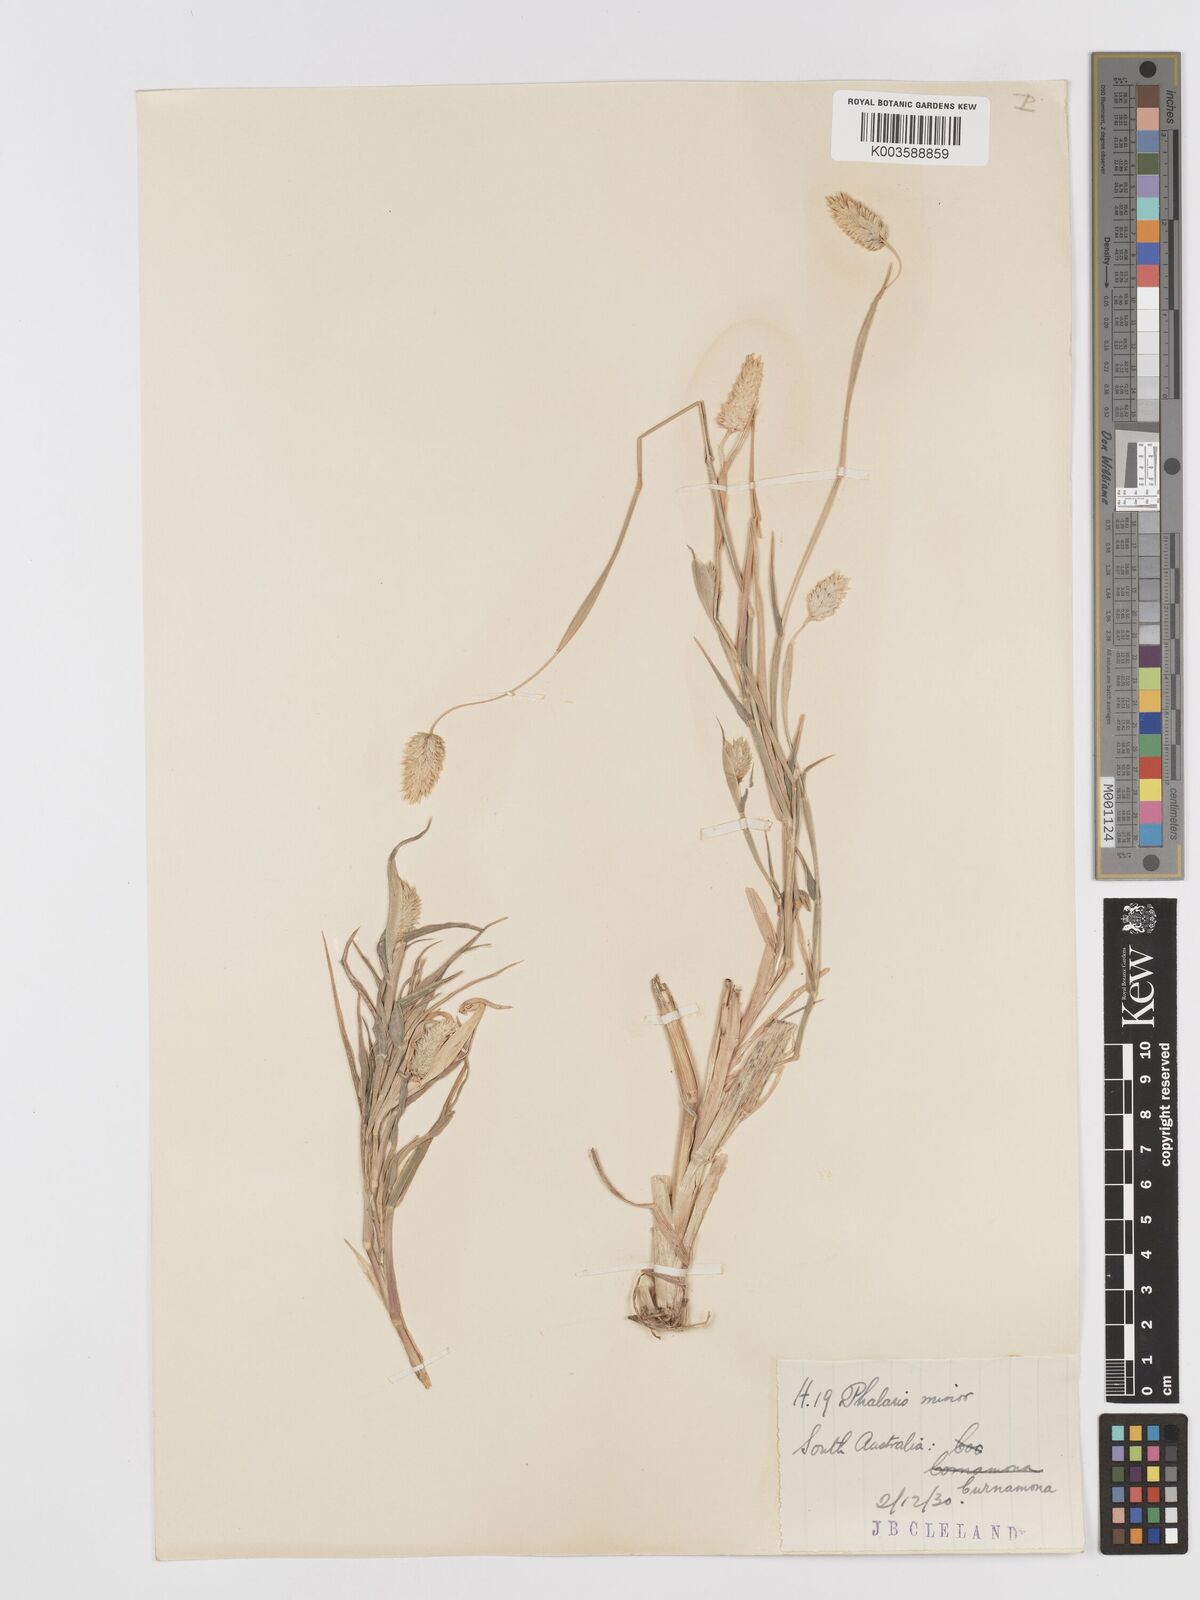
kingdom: Plantae
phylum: Tracheophyta
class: Liliopsida
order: Poales
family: Poaceae
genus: Phalaris
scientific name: Phalaris minor
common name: Littleseed canarygrass
